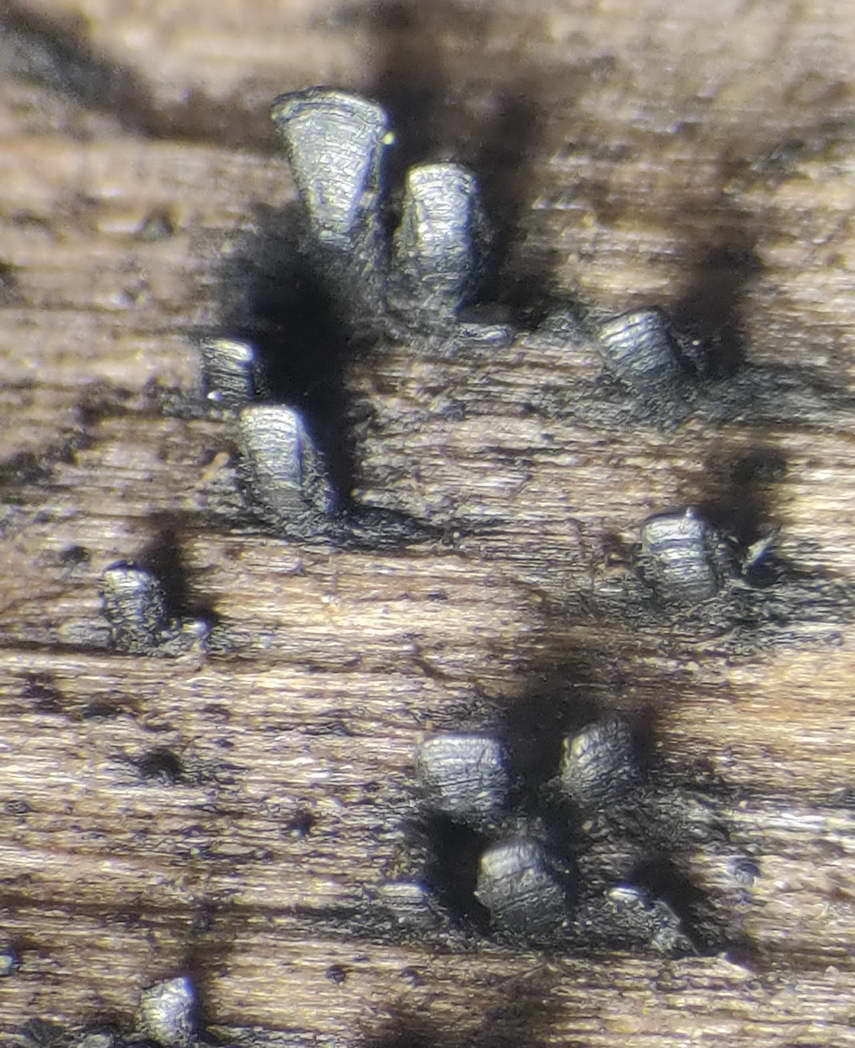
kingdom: Fungi
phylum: Ascomycota
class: Eurotiomycetes
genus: Glyphium
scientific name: Glyphium elatum
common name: kuløkse
